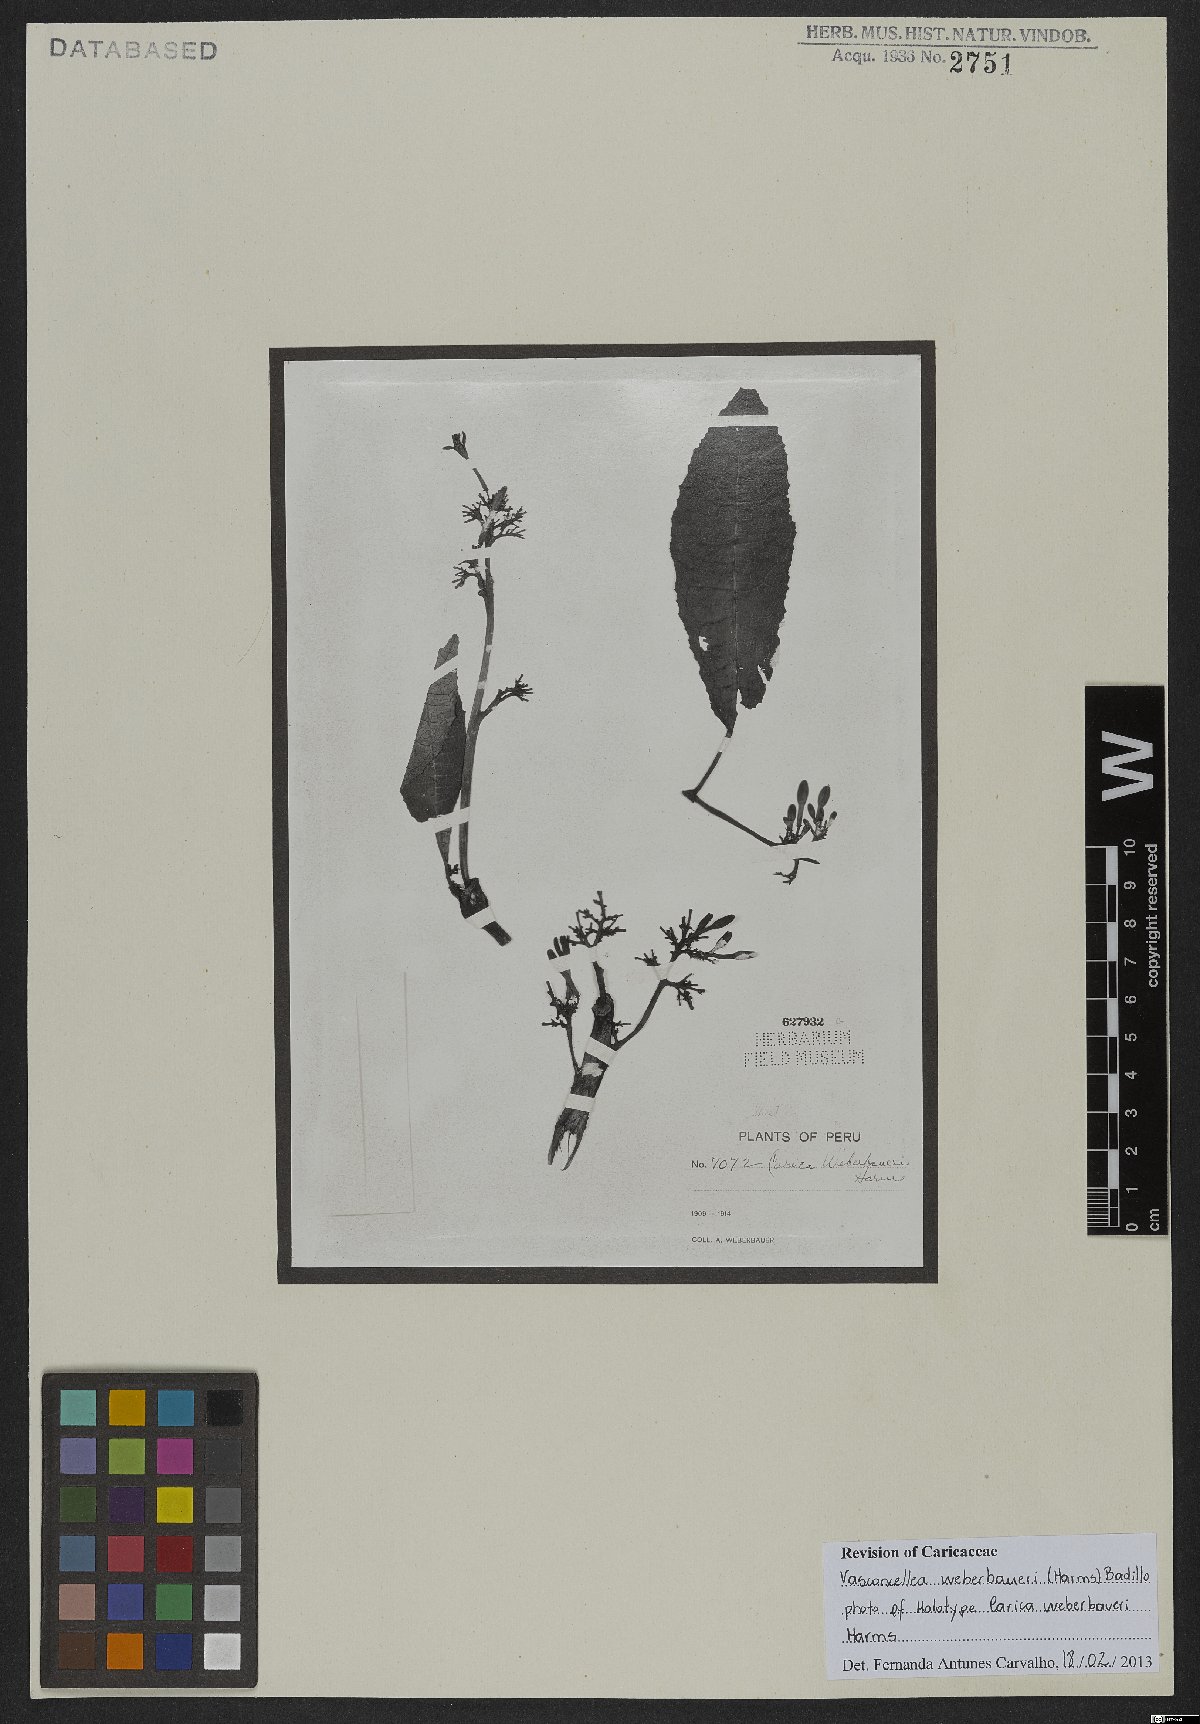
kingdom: Plantae
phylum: Tracheophyta
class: Magnoliopsida
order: Brassicales
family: Caricaceae
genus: Vasconcellea
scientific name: Vasconcellea weberbaueri
